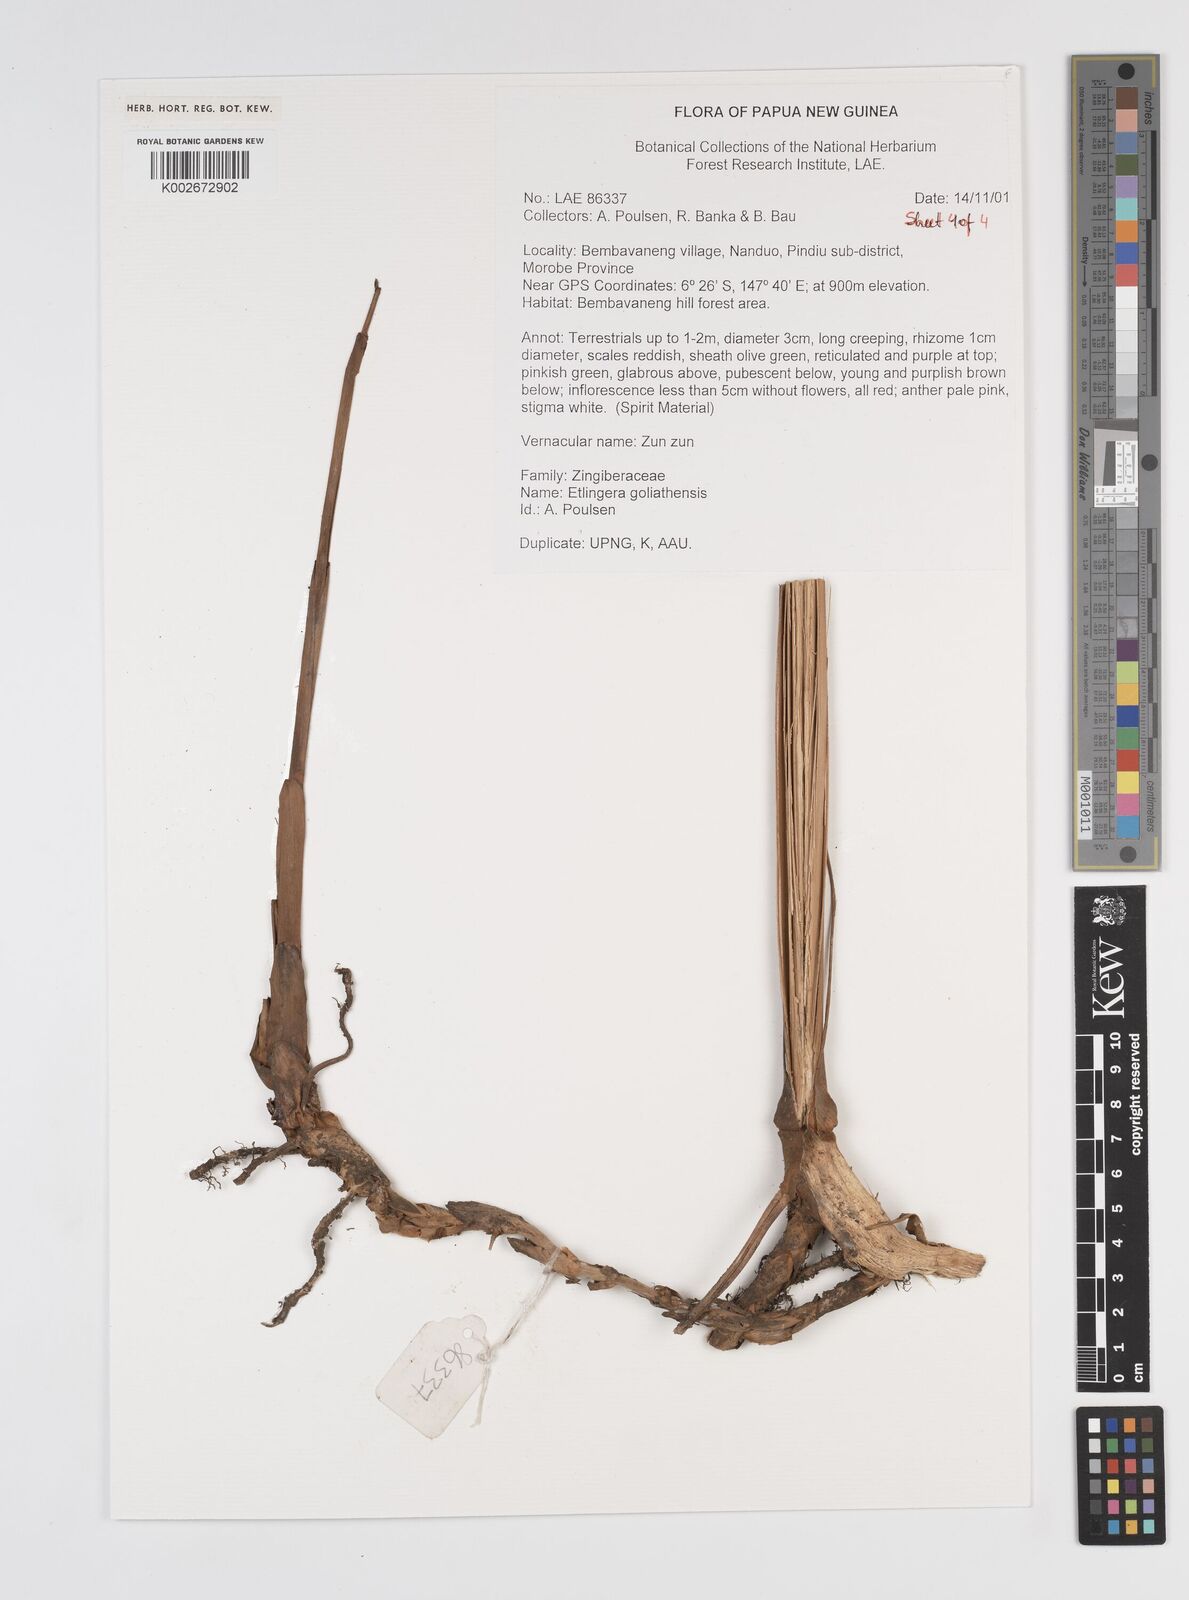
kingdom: Plantae
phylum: Tracheophyta
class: Liliopsida
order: Zingiberales
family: Zingiberaceae
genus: Etlingera
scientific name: Etlingera goliathensis
